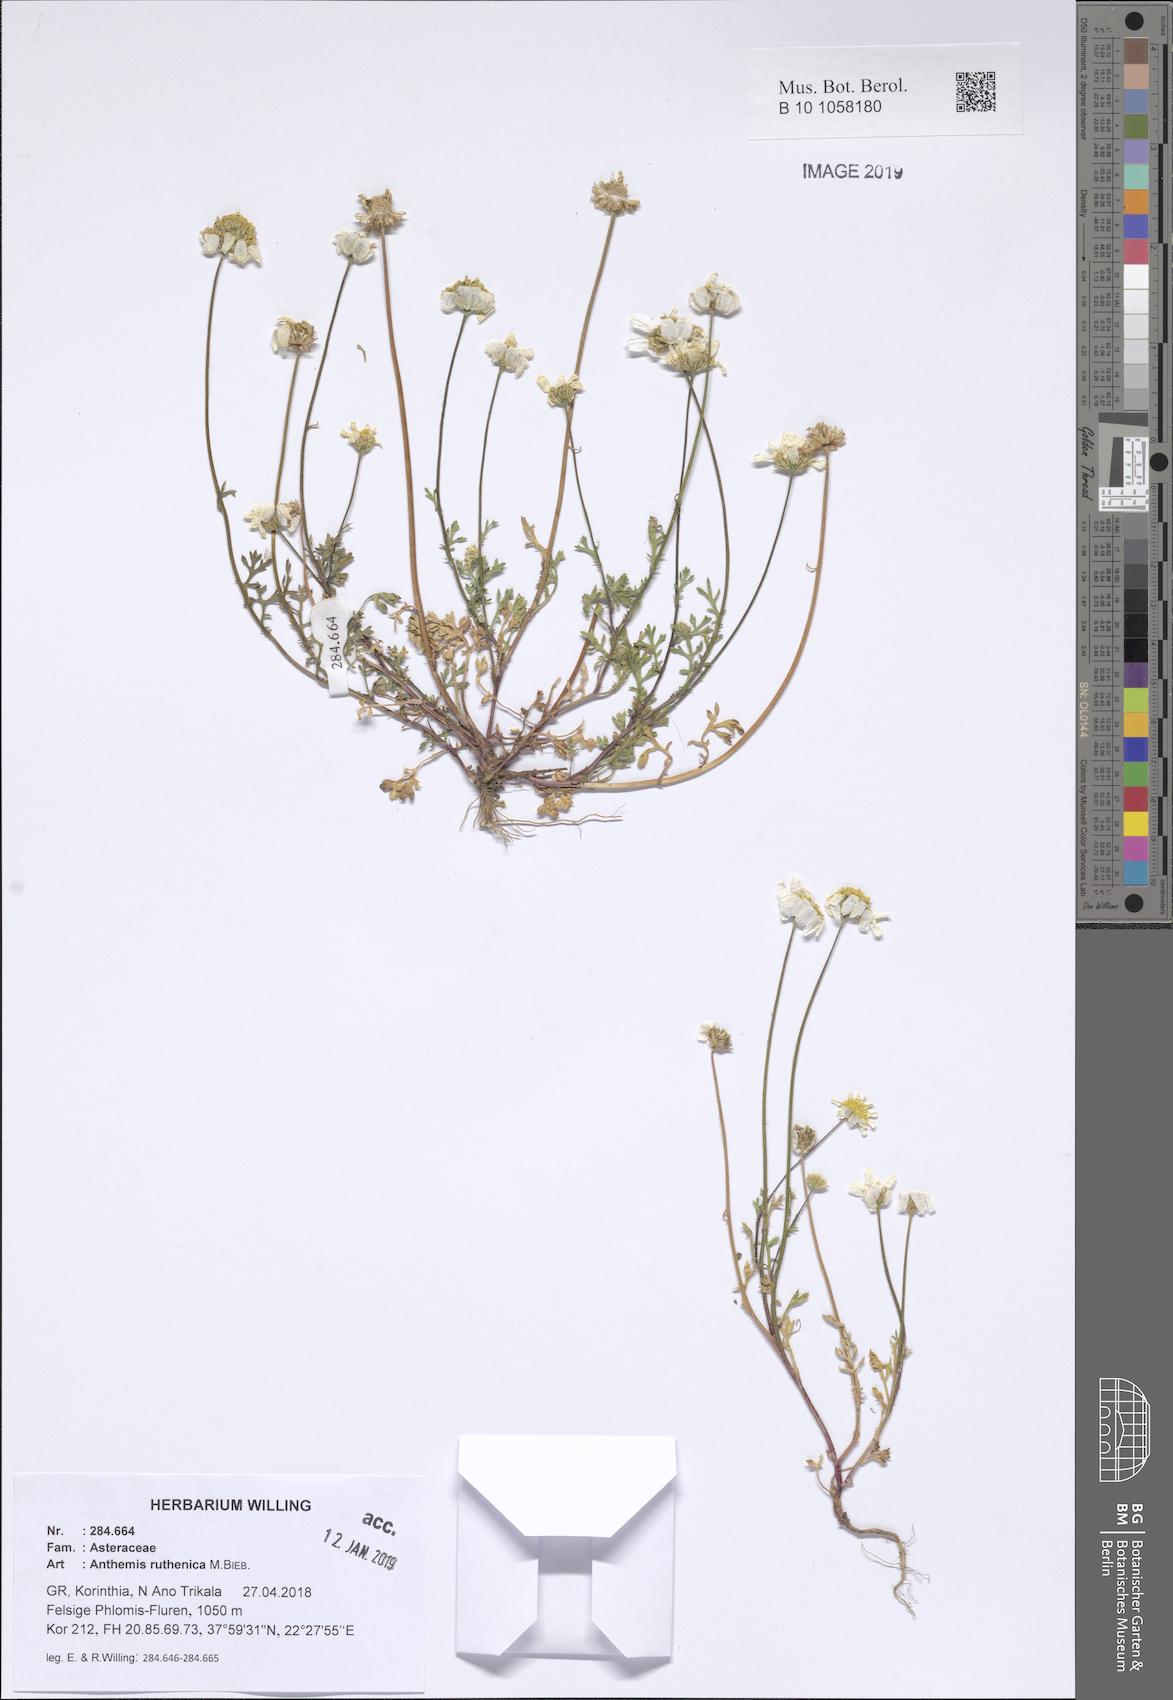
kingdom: Plantae
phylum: Tracheophyta
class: Magnoliopsida
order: Asterales
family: Asteraceae
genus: Anthemis
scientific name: Anthemis ruthenica
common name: Eastern chamomile
